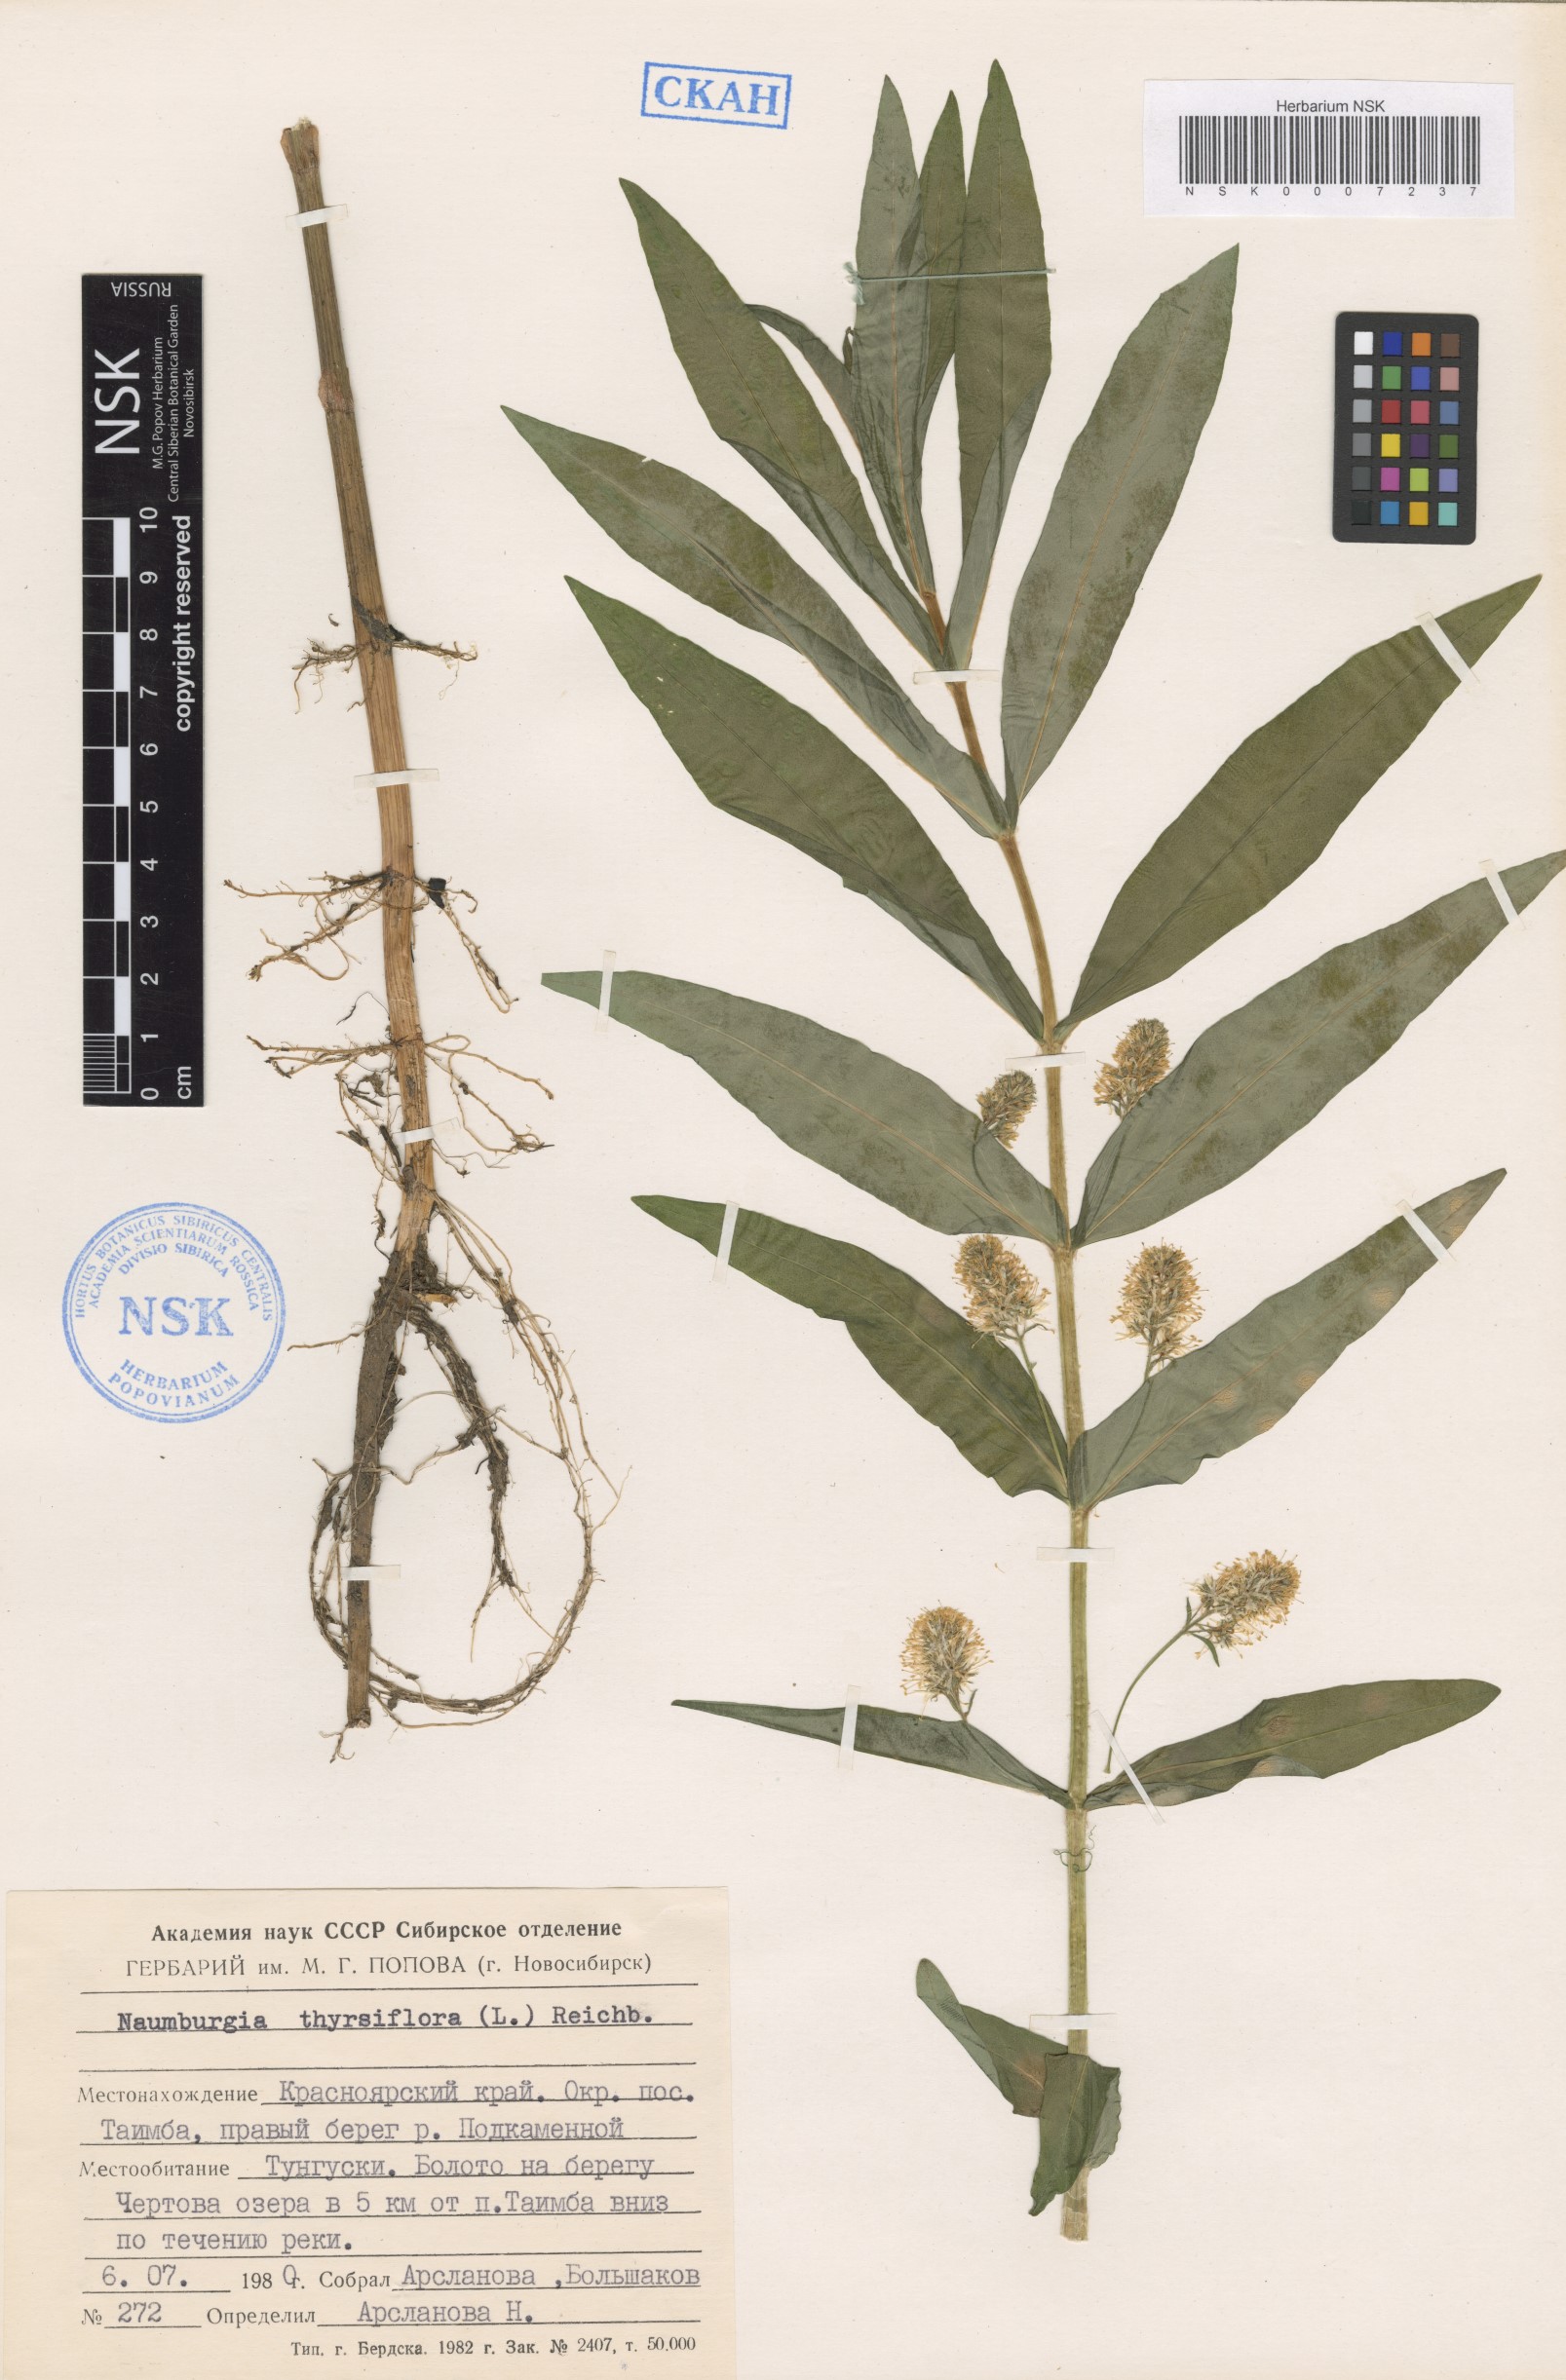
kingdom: Plantae
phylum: Tracheophyta
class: Magnoliopsida
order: Ericales
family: Primulaceae
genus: Lysimachia
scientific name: Lysimachia thyrsiflora
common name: Tufted loosestrife
